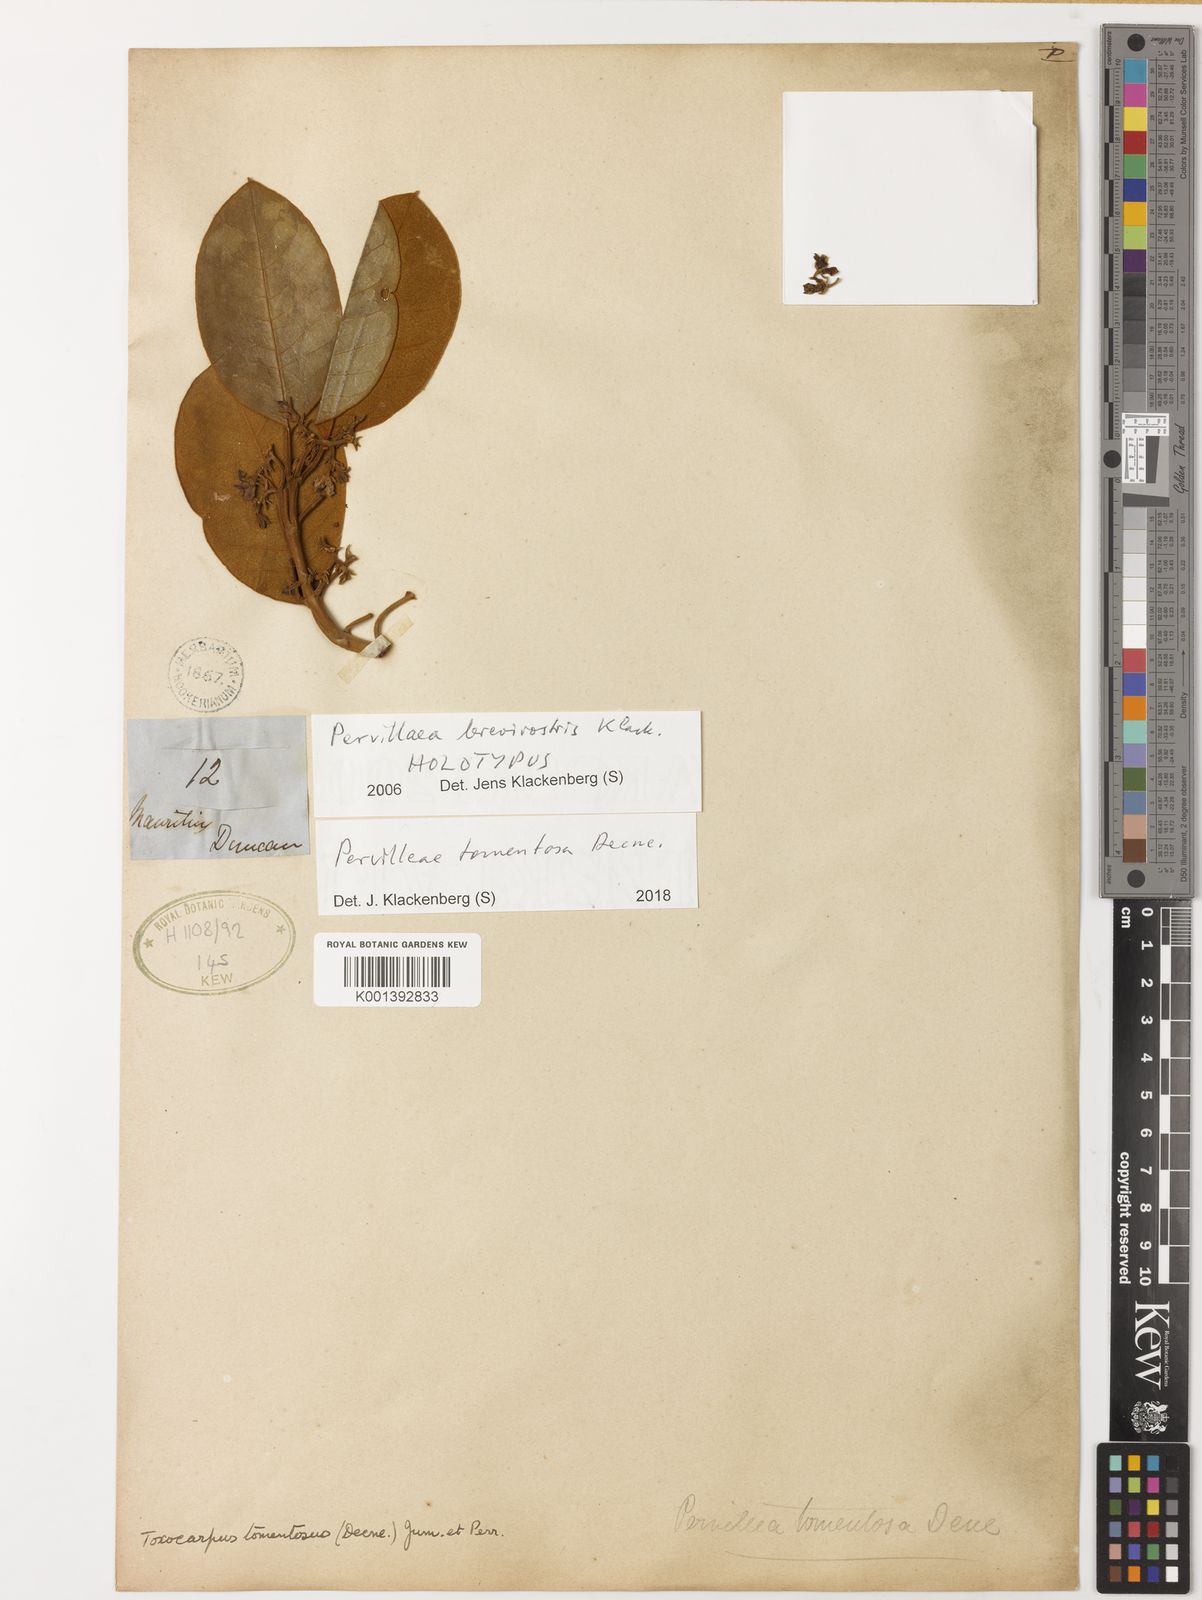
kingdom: Plantae
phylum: Tracheophyta
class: Magnoliopsida
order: Gentianales
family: Apocynaceae
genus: Pervillaea
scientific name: Pervillaea tomentosa
